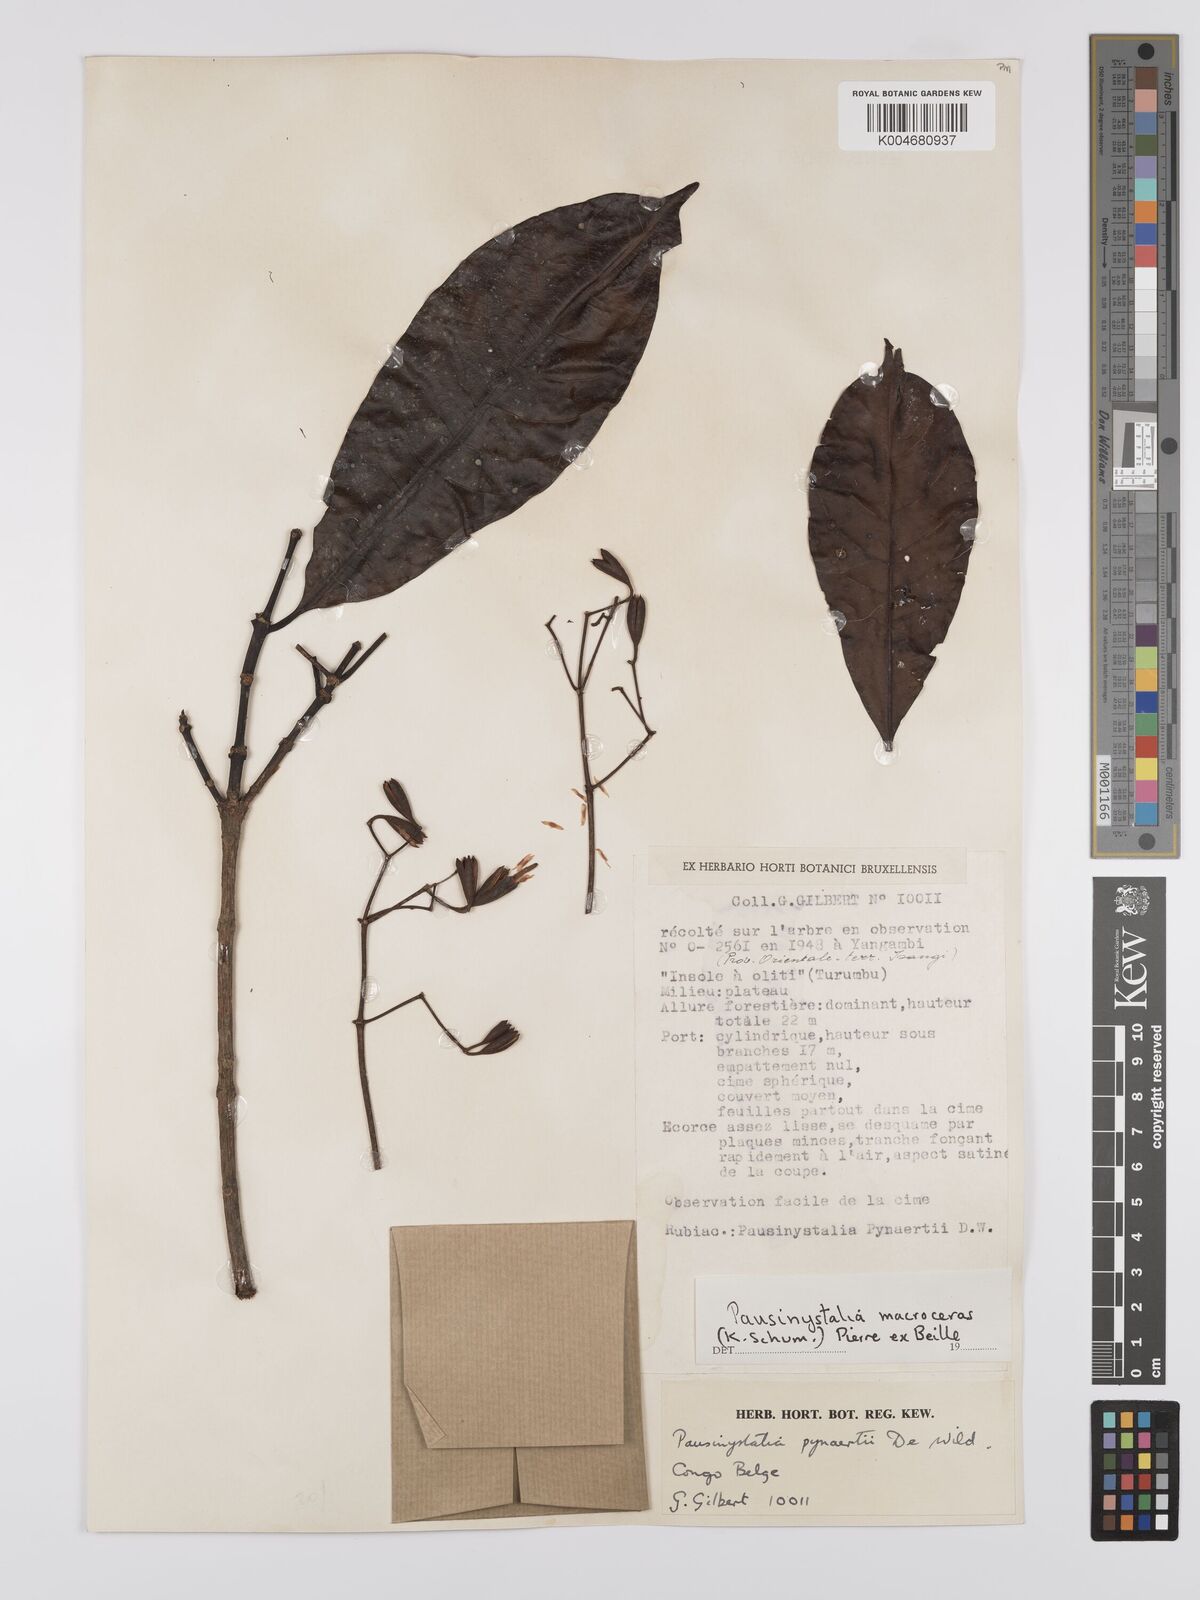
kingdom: Plantae
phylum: Tracheophyta
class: Magnoliopsida
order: Gentianales
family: Rubiaceae
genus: Corynanthe
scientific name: Corynanthe macroceras
